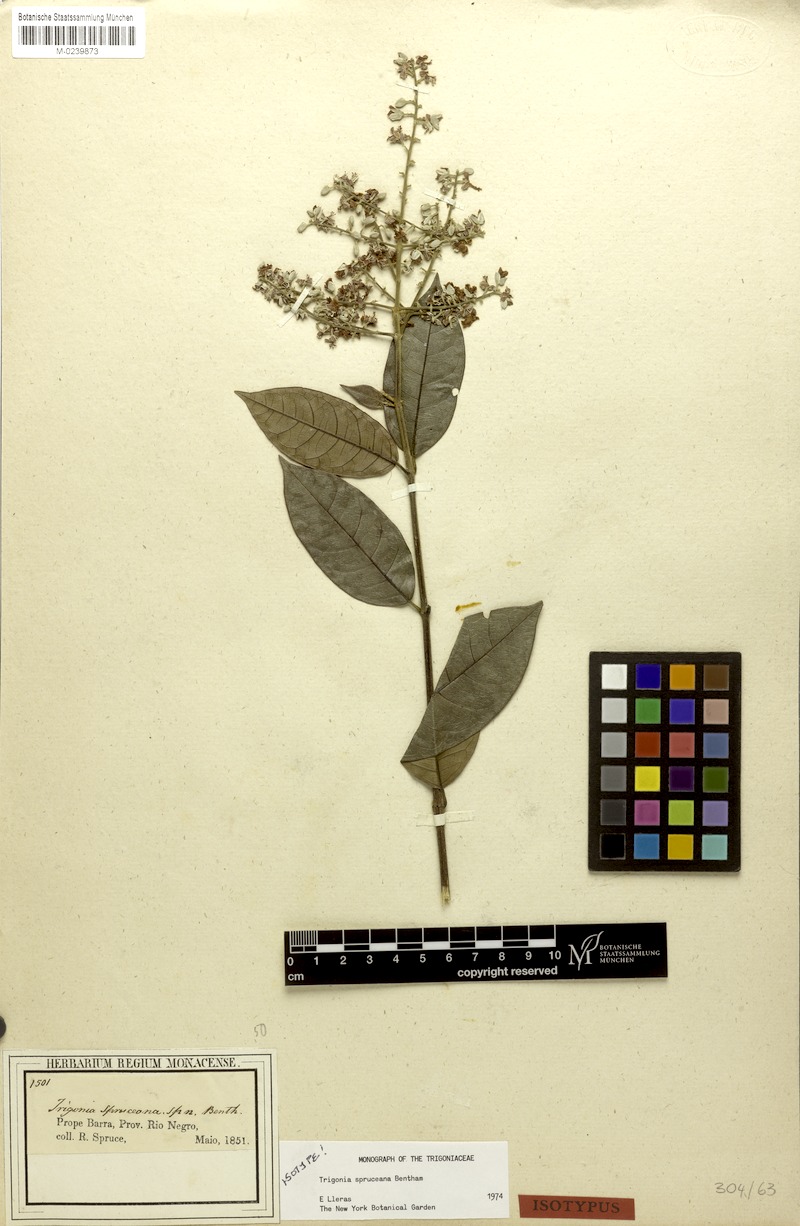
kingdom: Plantae
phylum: Tracheophyta
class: Magnoliopsida
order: Malpighiales
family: Trigoniaceae
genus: Trigonia
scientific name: Trigonia spruceana
